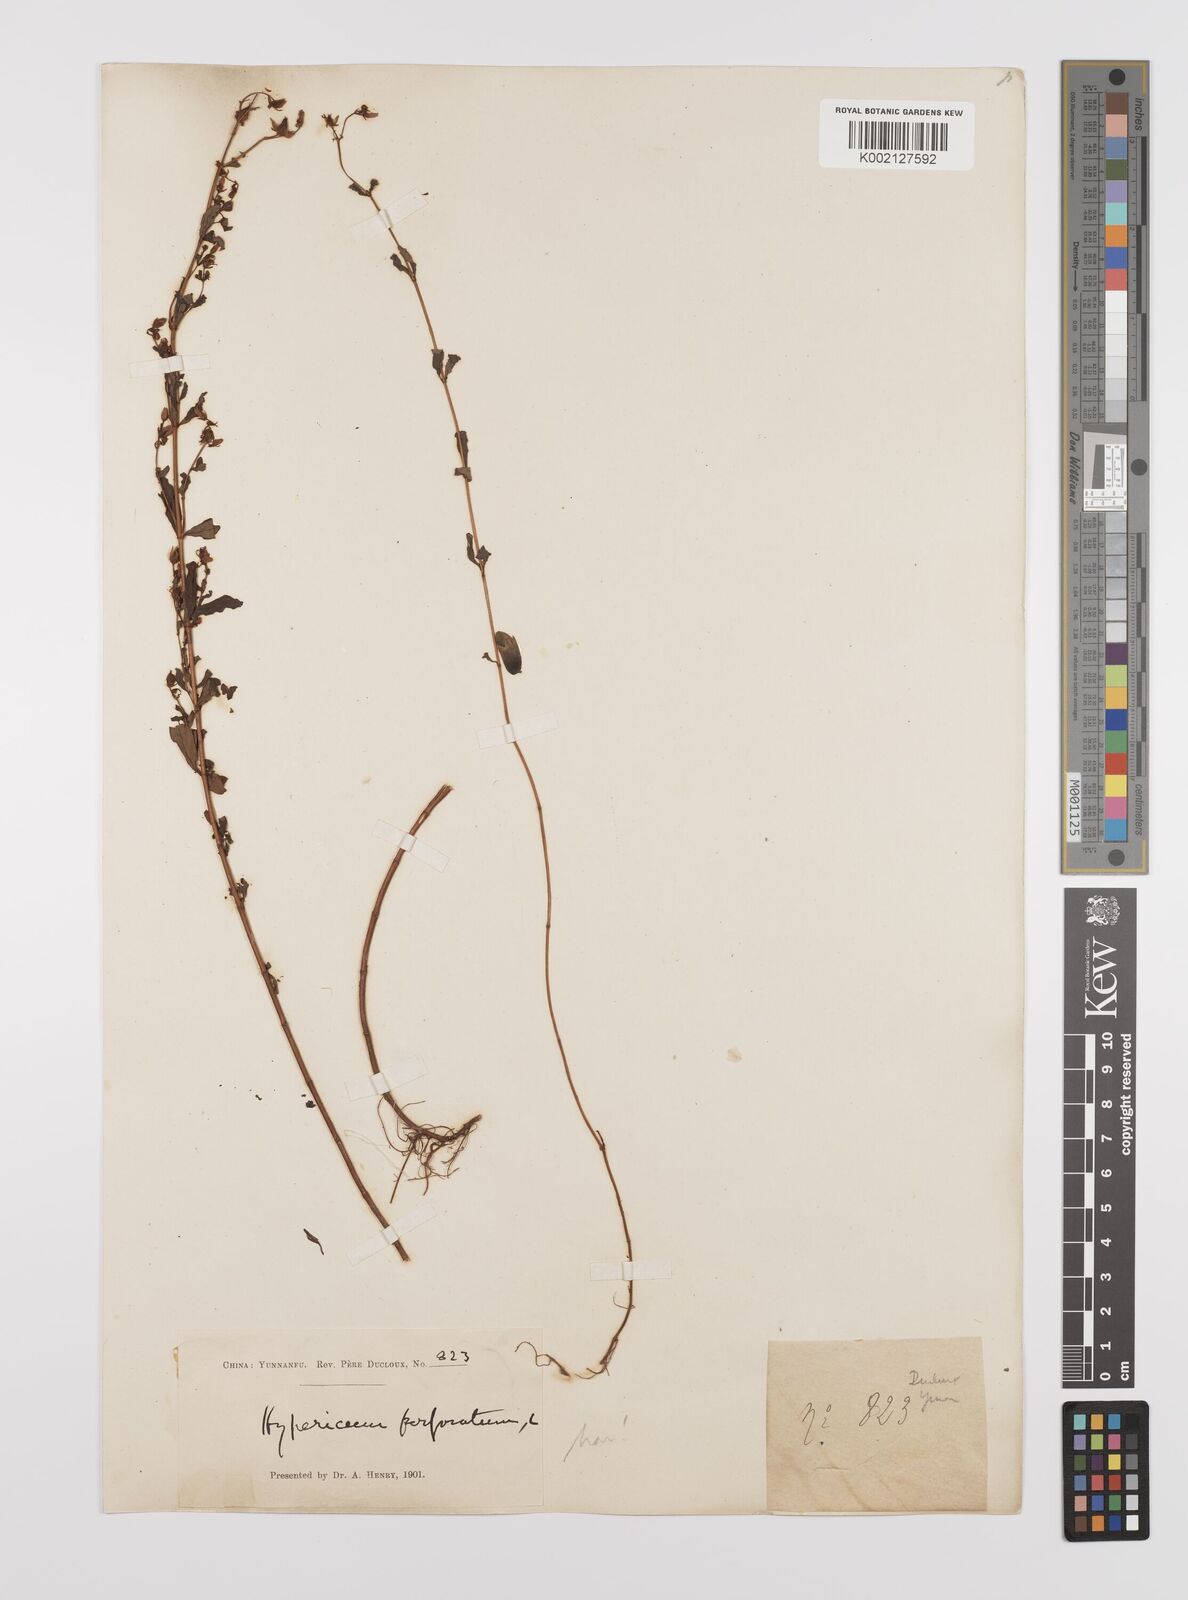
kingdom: Plantae
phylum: Tracheophyta
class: Magnoliopsida
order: Malpighiales
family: Hypericaceae
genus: Hypericum
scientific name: Hypericum petiolulatum
